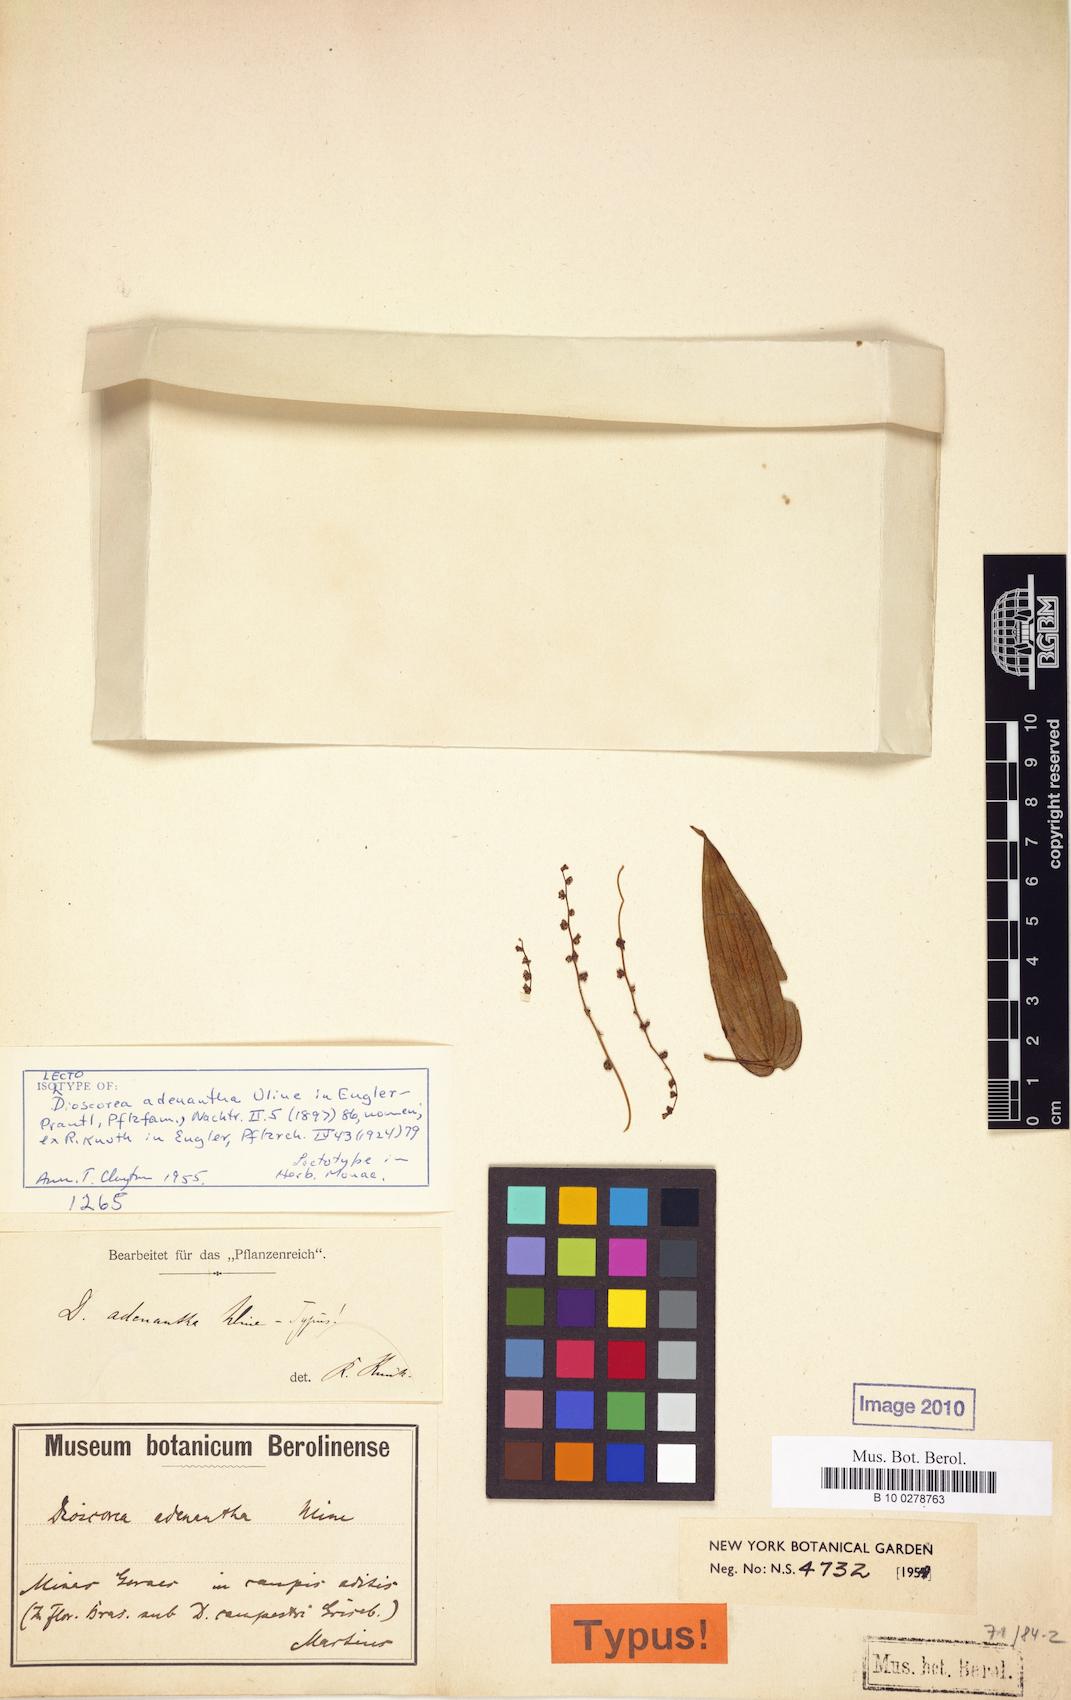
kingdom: Plantae
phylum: Tracheophyta
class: Liliopsida
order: Dioscoreales
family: Dioscoreaceae
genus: Dioscorea
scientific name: Dioscorea adenantha
